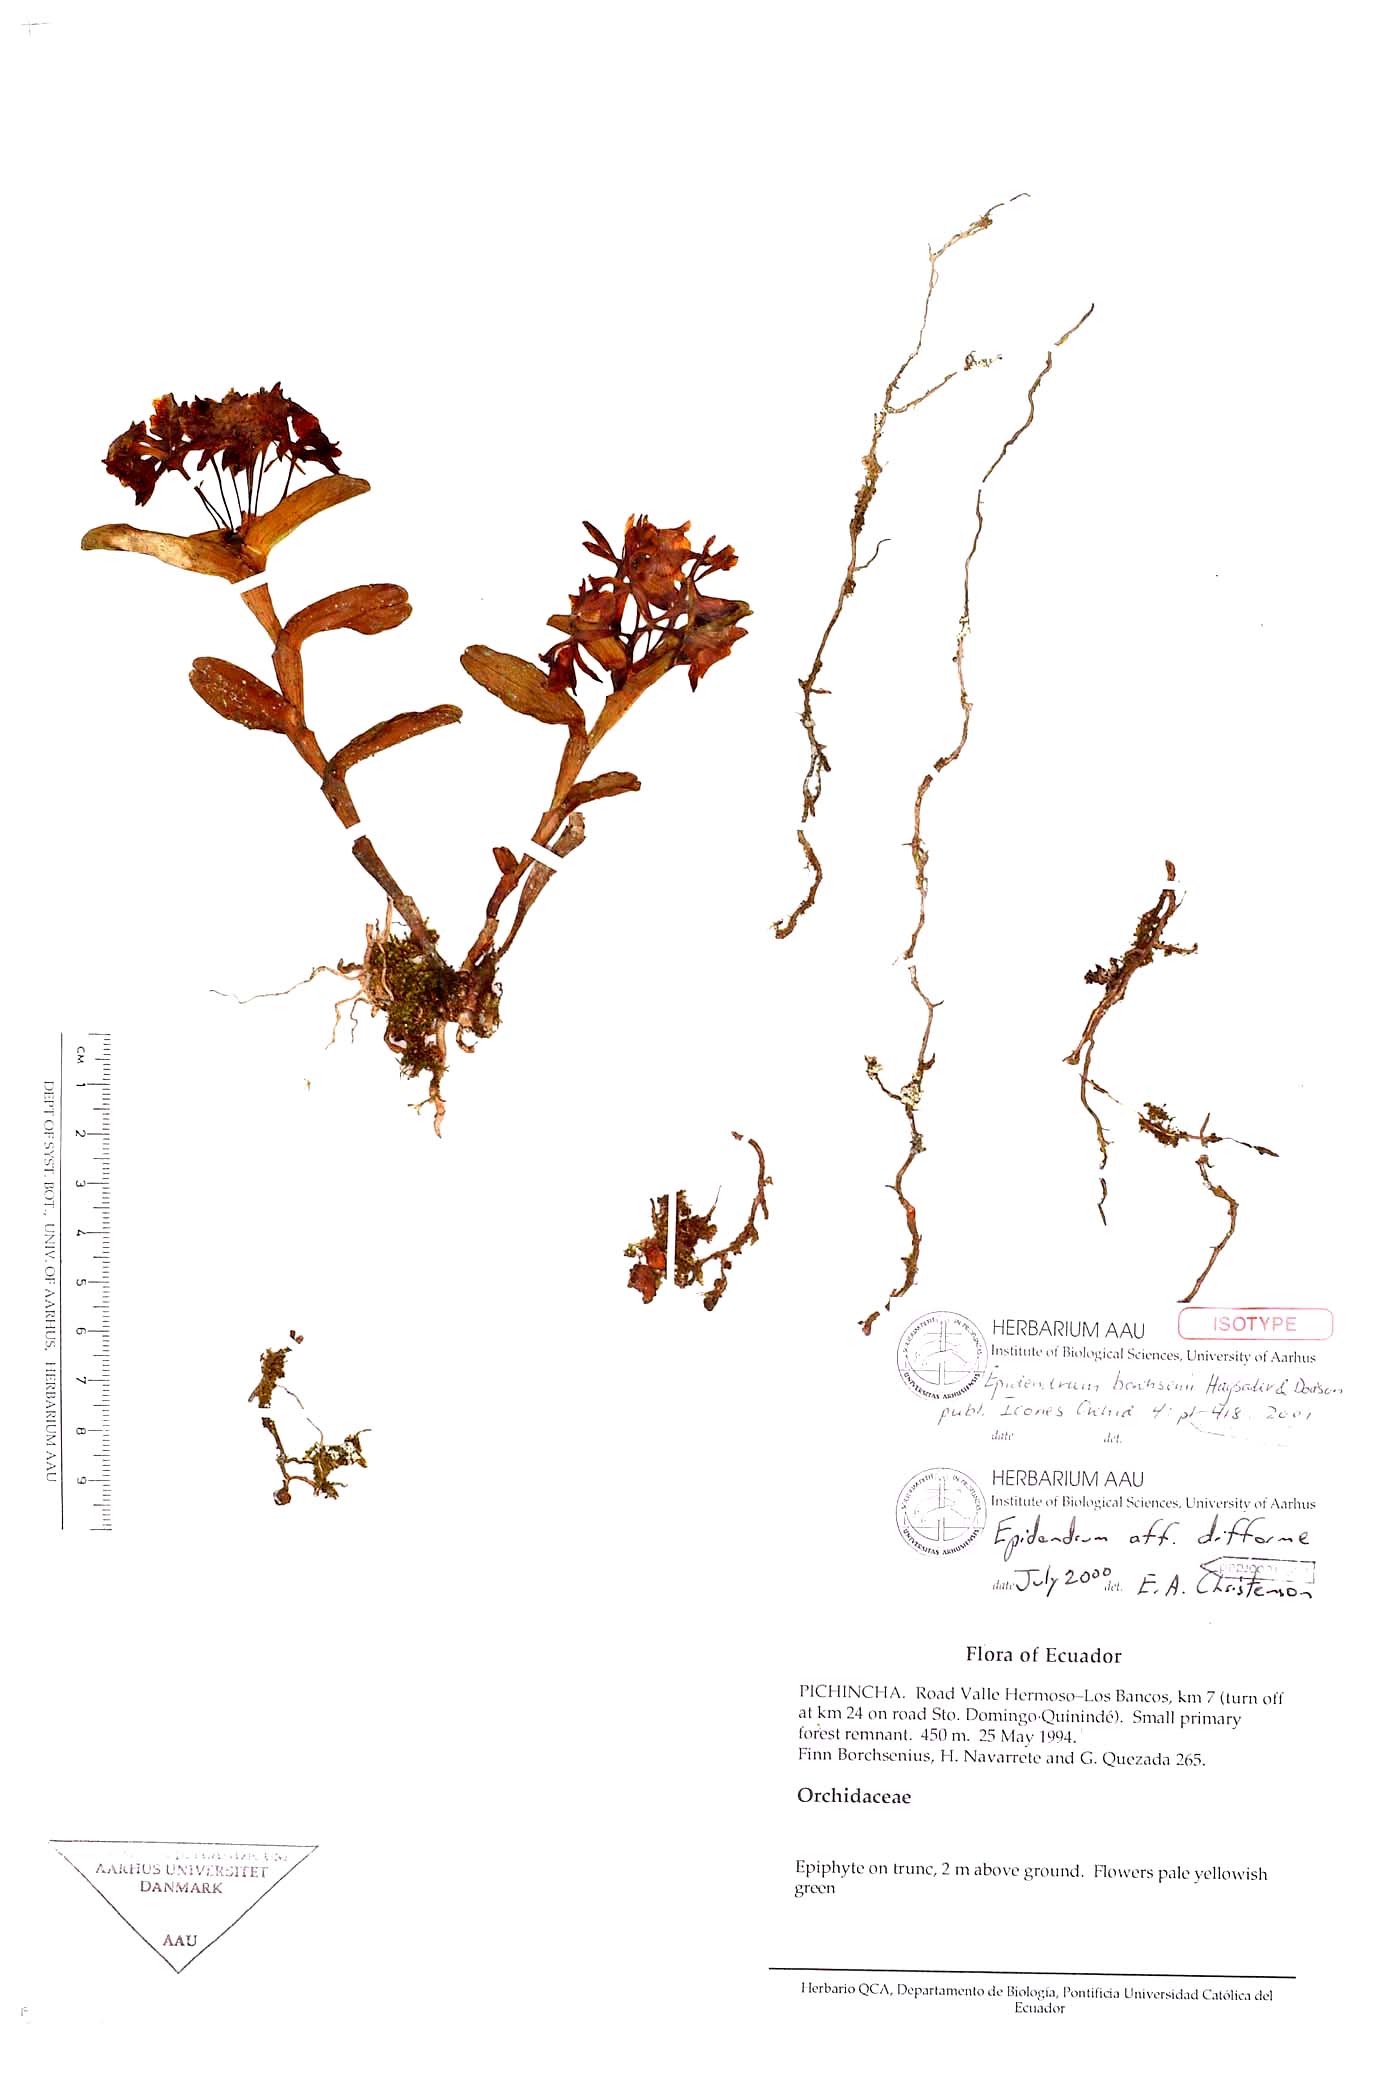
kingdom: Plantae
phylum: Tracheophyta
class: Liliopsida
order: Asparagales
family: Orchidaceae
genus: Epidendrum
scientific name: Epidendrum borchsenii
